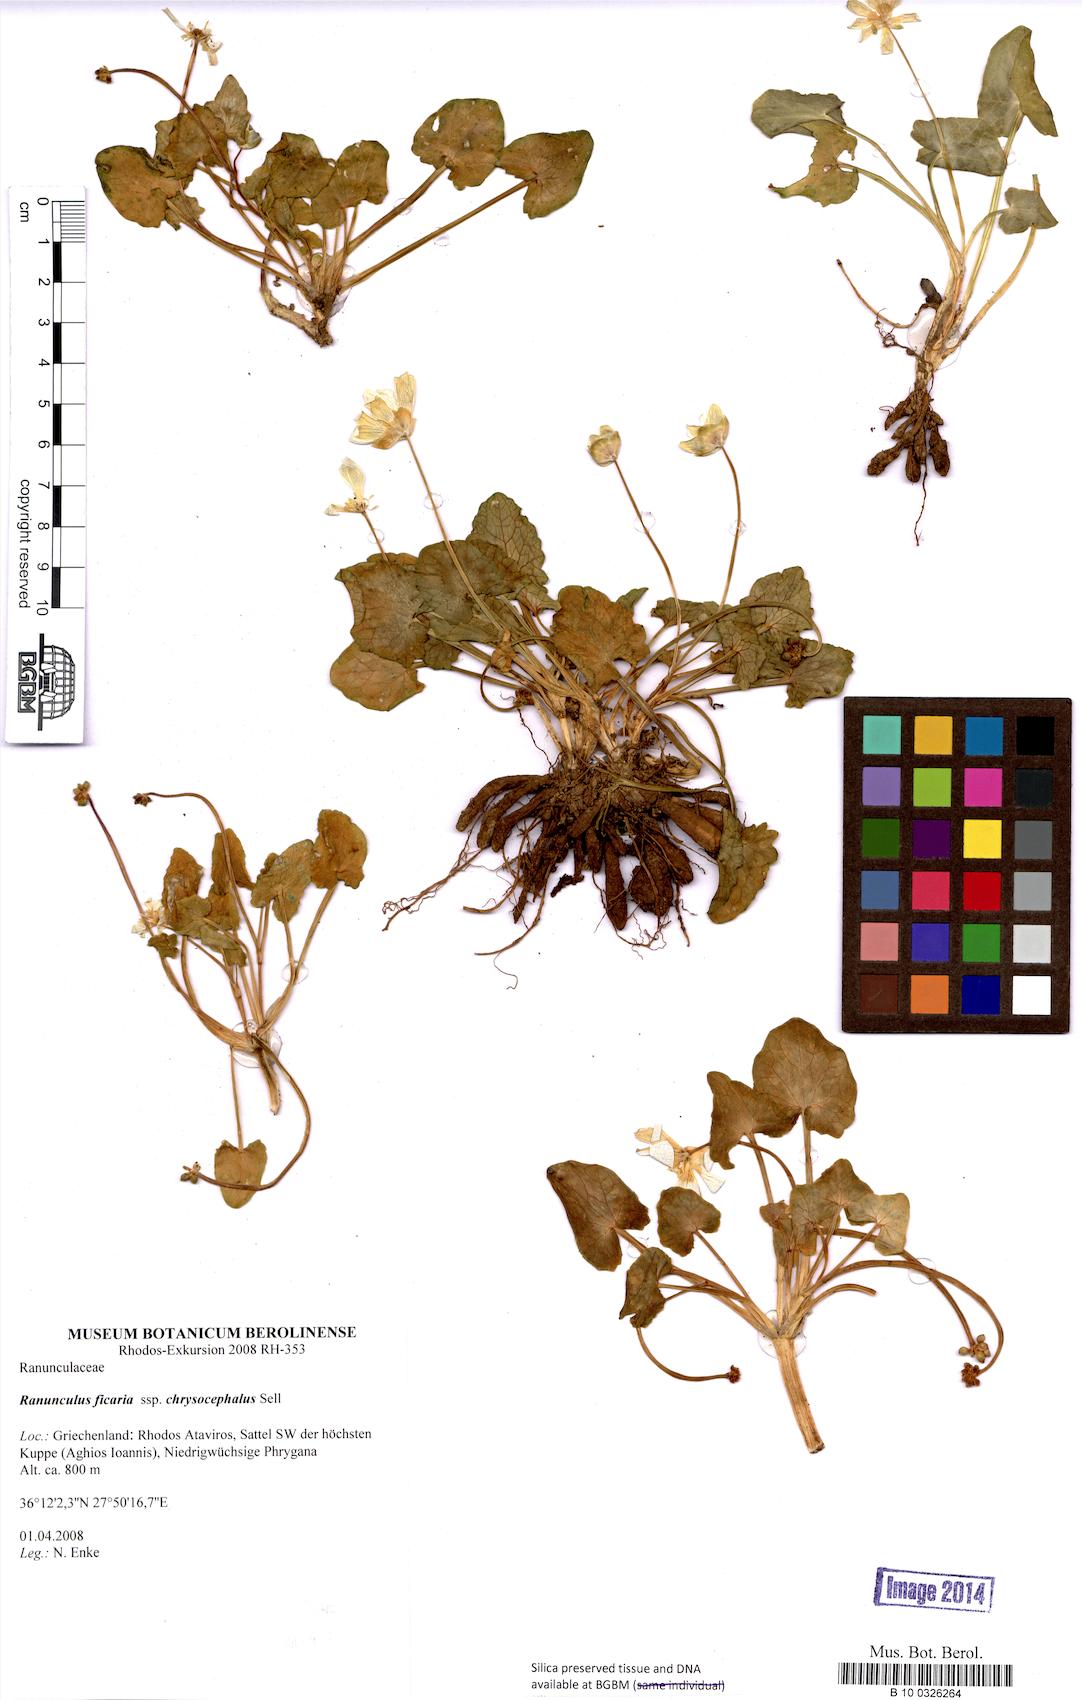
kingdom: Plantae
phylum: Tracheophyta
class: Magnoliopsida
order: Ranunculales
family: Ranunculaceae
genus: Ficaria
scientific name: Ficaria chrysocephala
